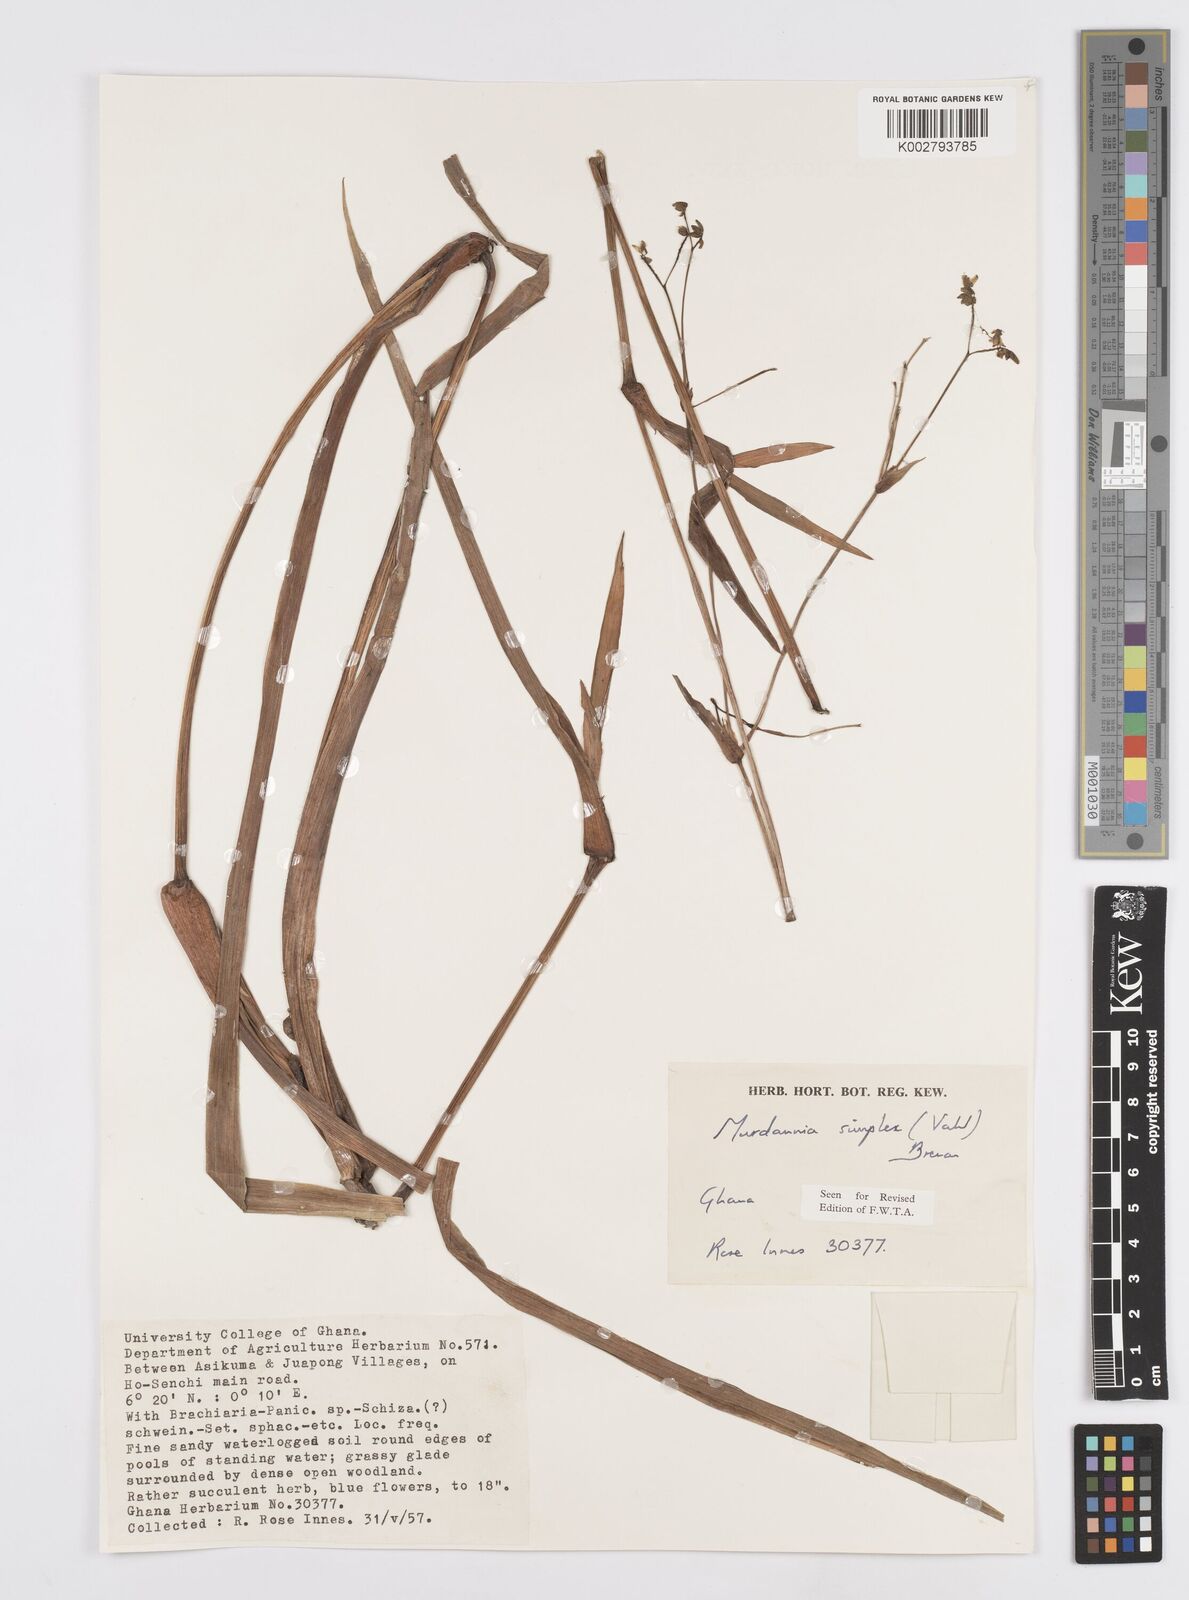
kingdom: Plantae
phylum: Tracheophyta
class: Liliopsida
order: Commelinales
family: Commelinaceae
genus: Murdannia
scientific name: Murdannia simplex
